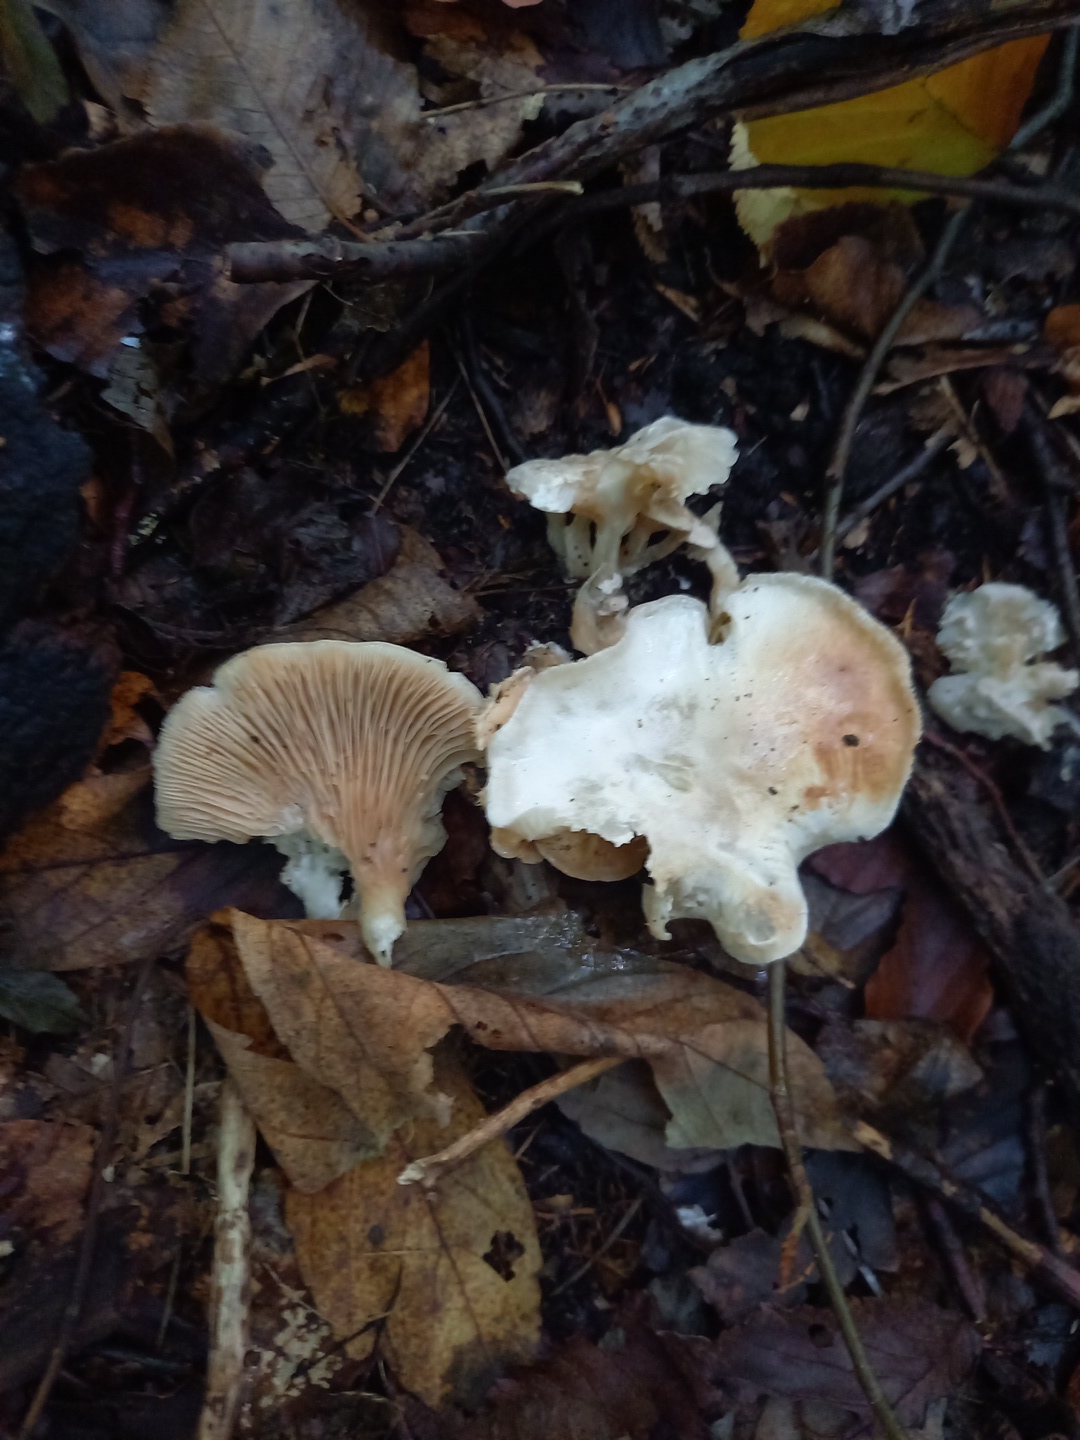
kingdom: Fungi
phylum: Basidiomycota
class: Agaricomycetes
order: Agaricales
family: Entolomataceae
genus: Clitopilus
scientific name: Clitopilus prunulus
